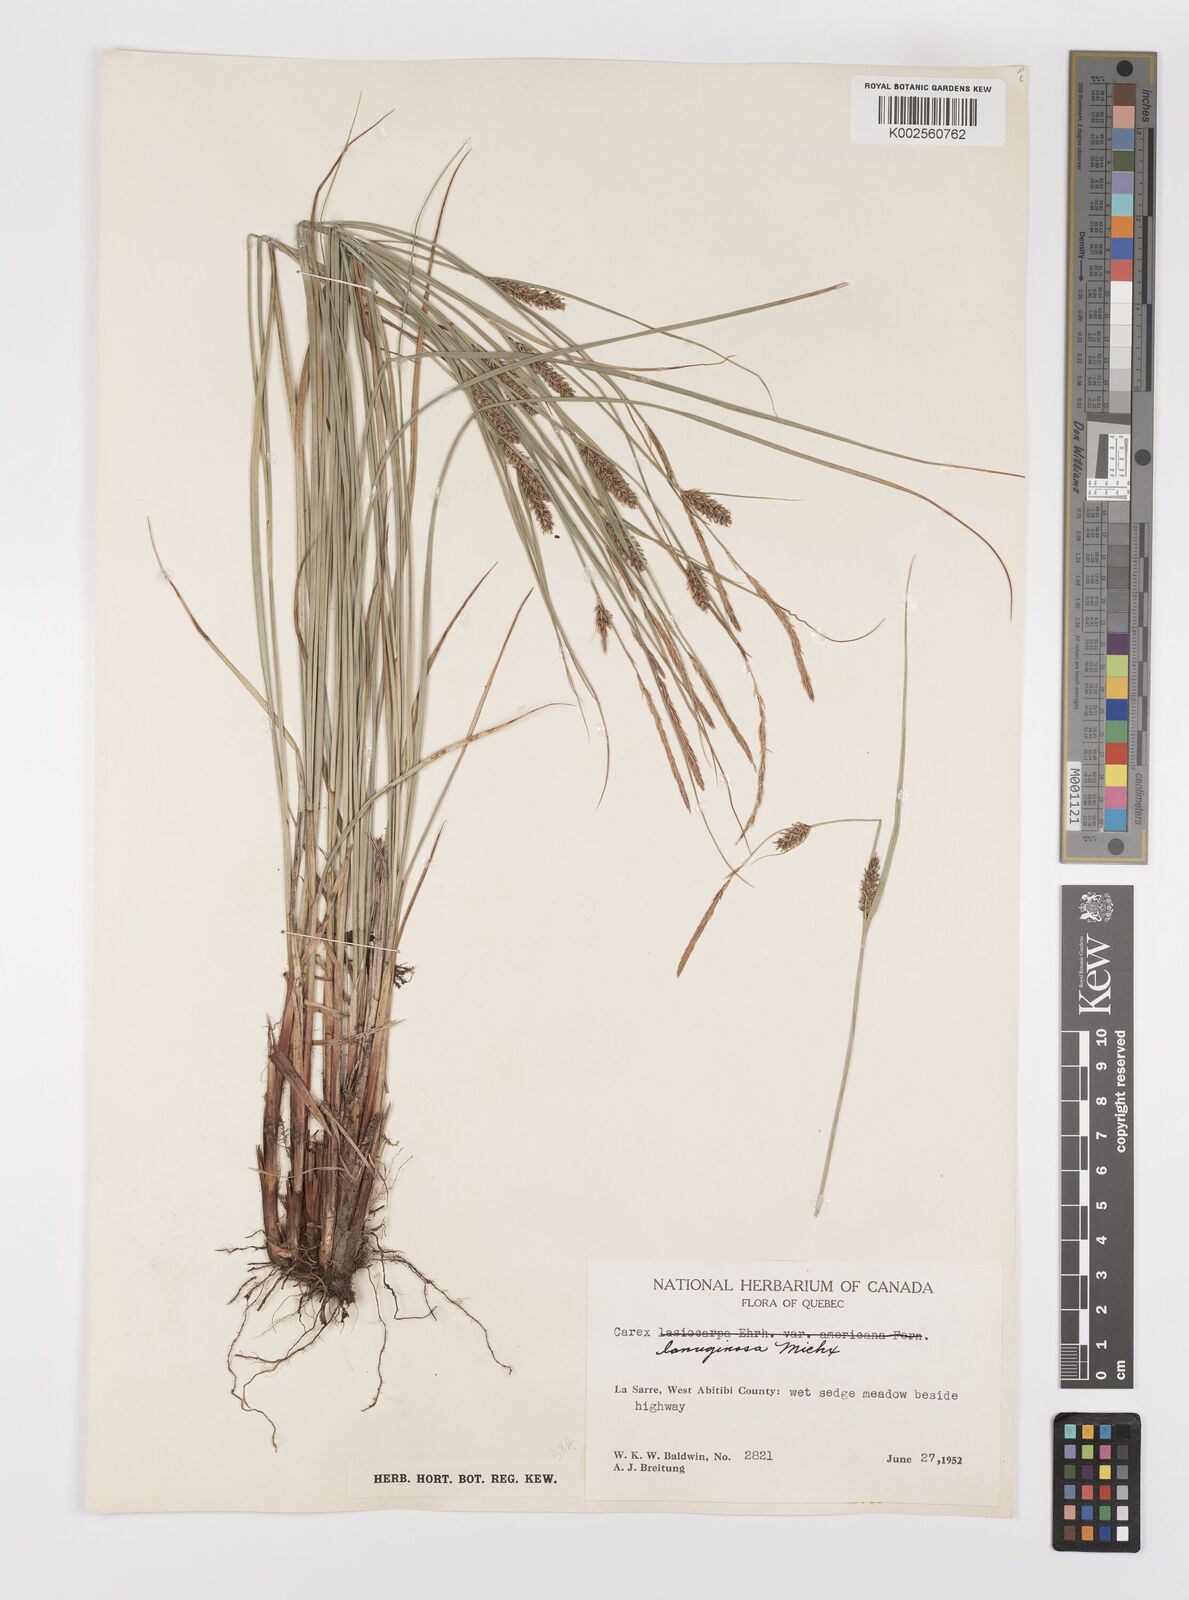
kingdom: Plantae
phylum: Tracheophyta
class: Liliopsida
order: Poales
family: Cyperaceae
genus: Carex
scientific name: Carex lasiocarpa
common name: Slender sedge
